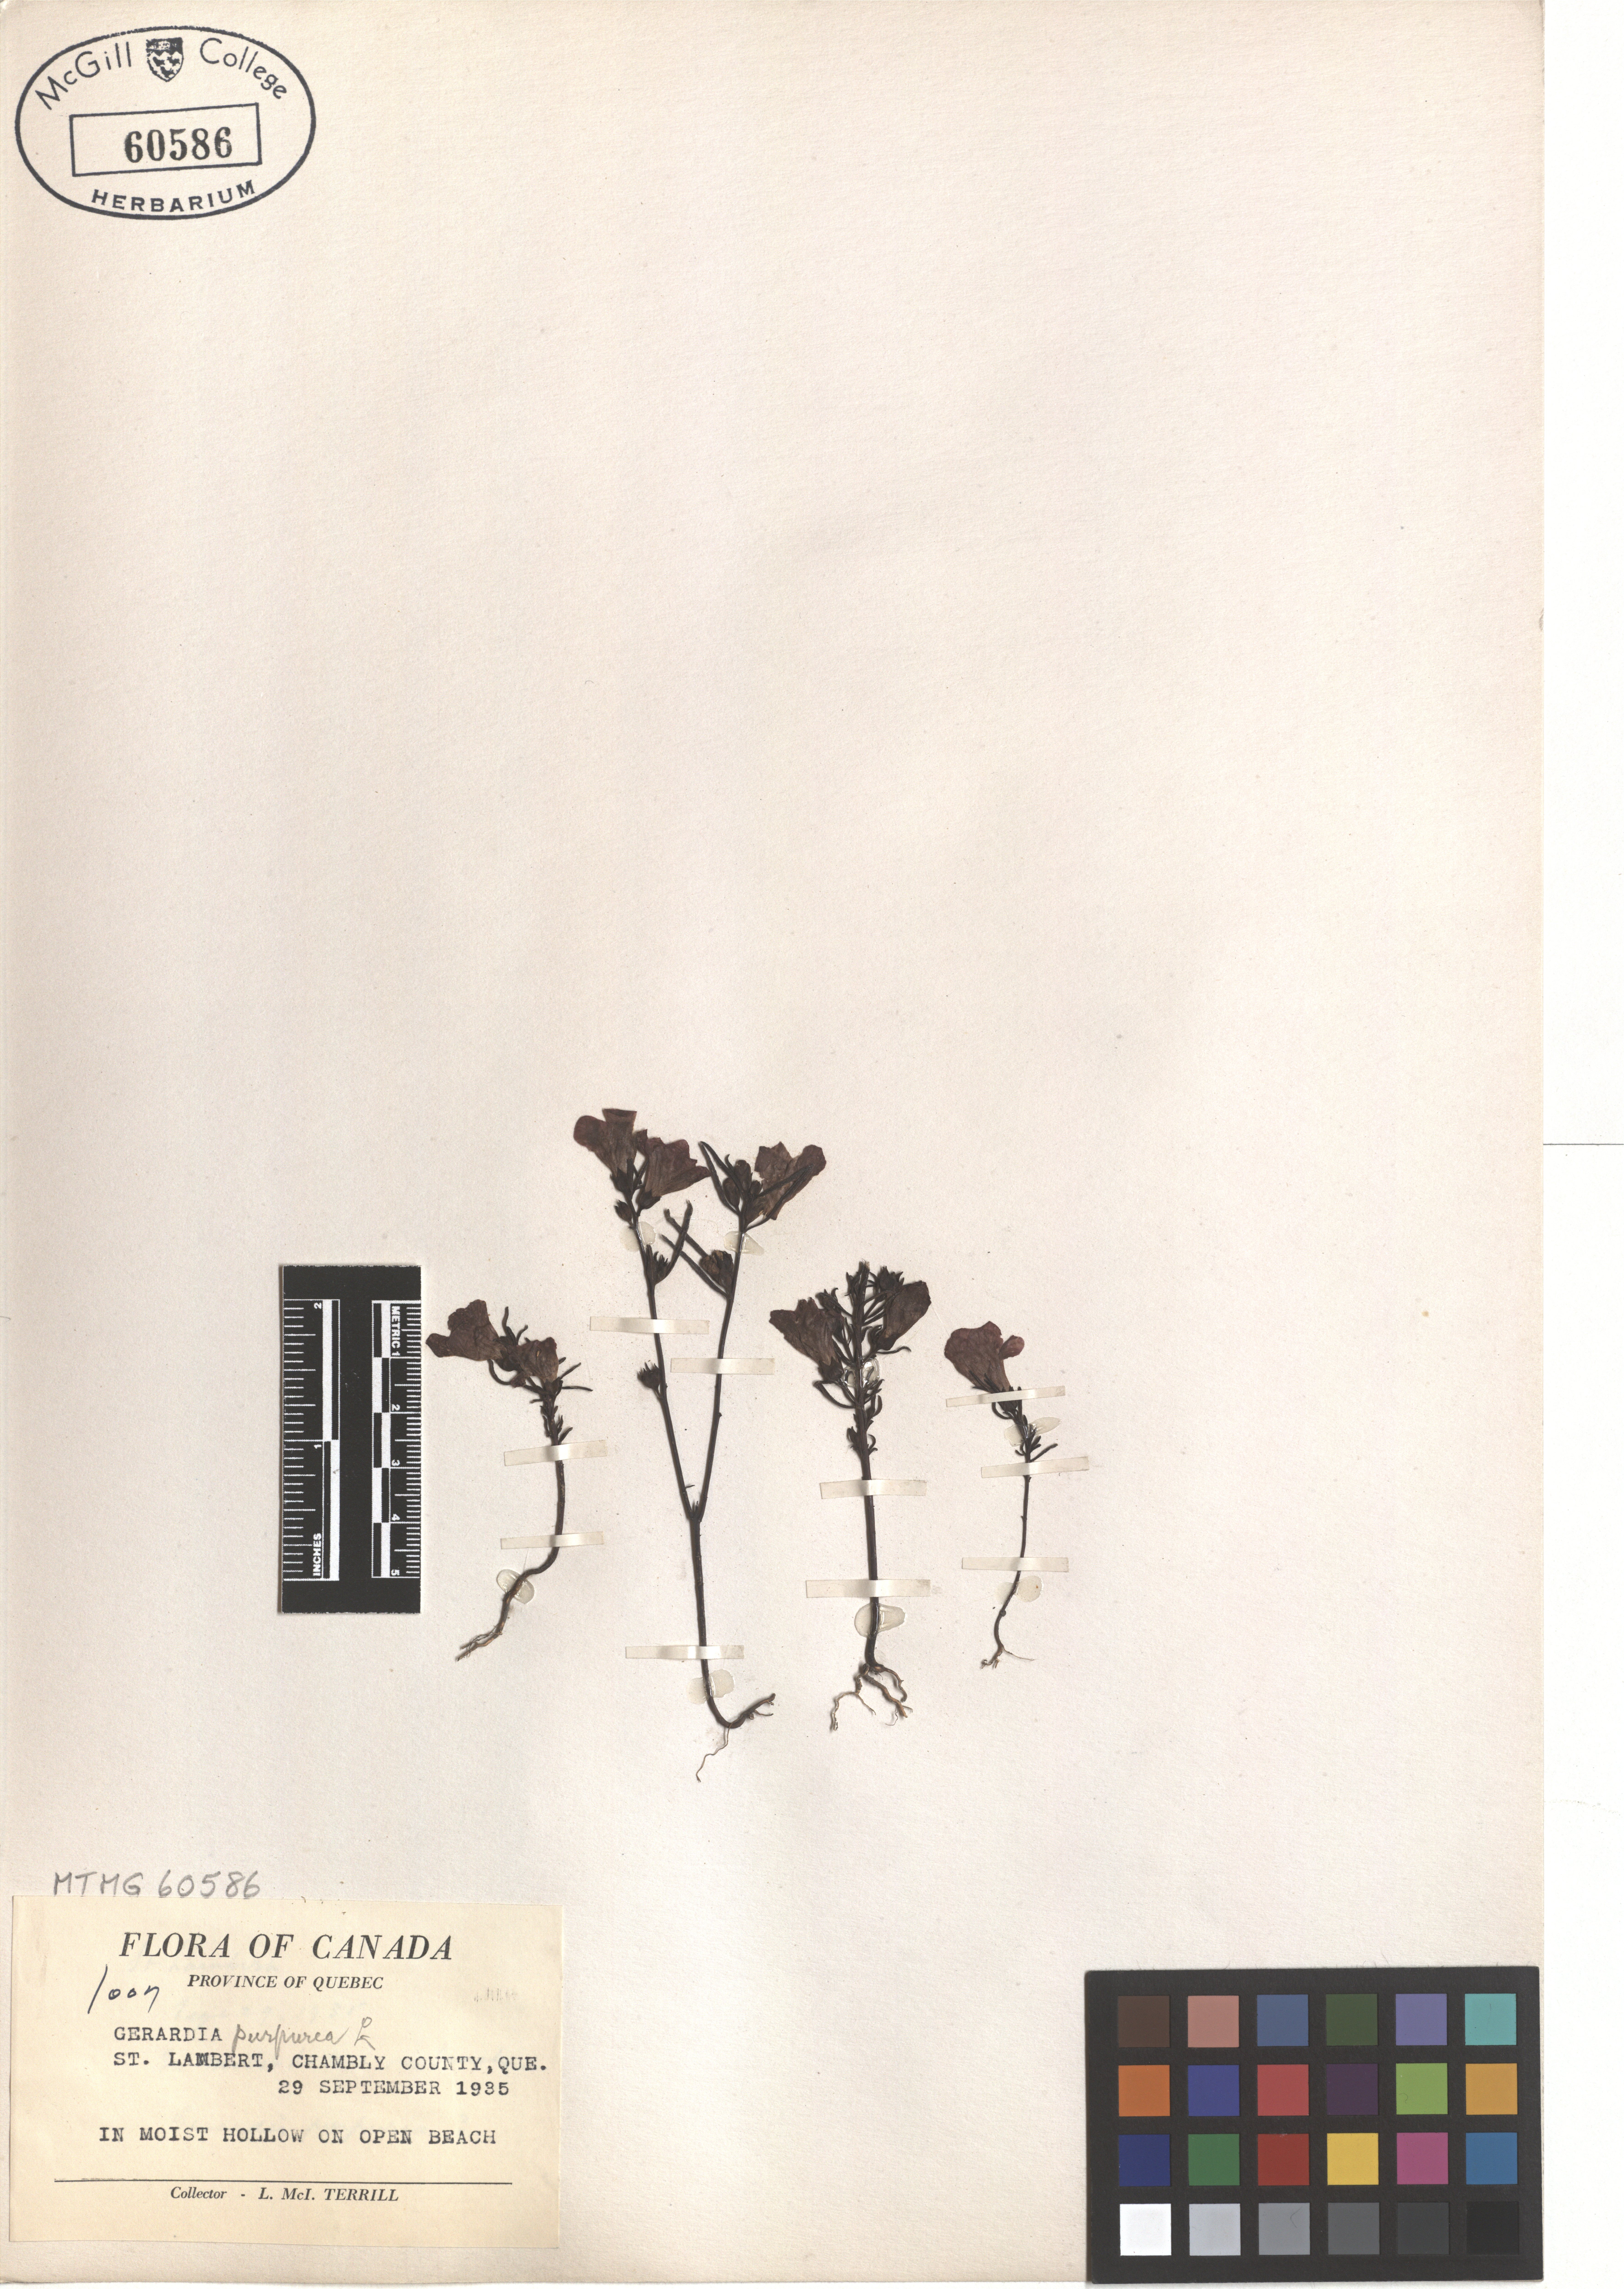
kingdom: Plantae
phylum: Tracheophyta
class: Magnoliopsida
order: Lamiales
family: Orobanchaceae
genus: Agalinis
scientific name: Agalinis purpurea
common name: Purple false foxglove
